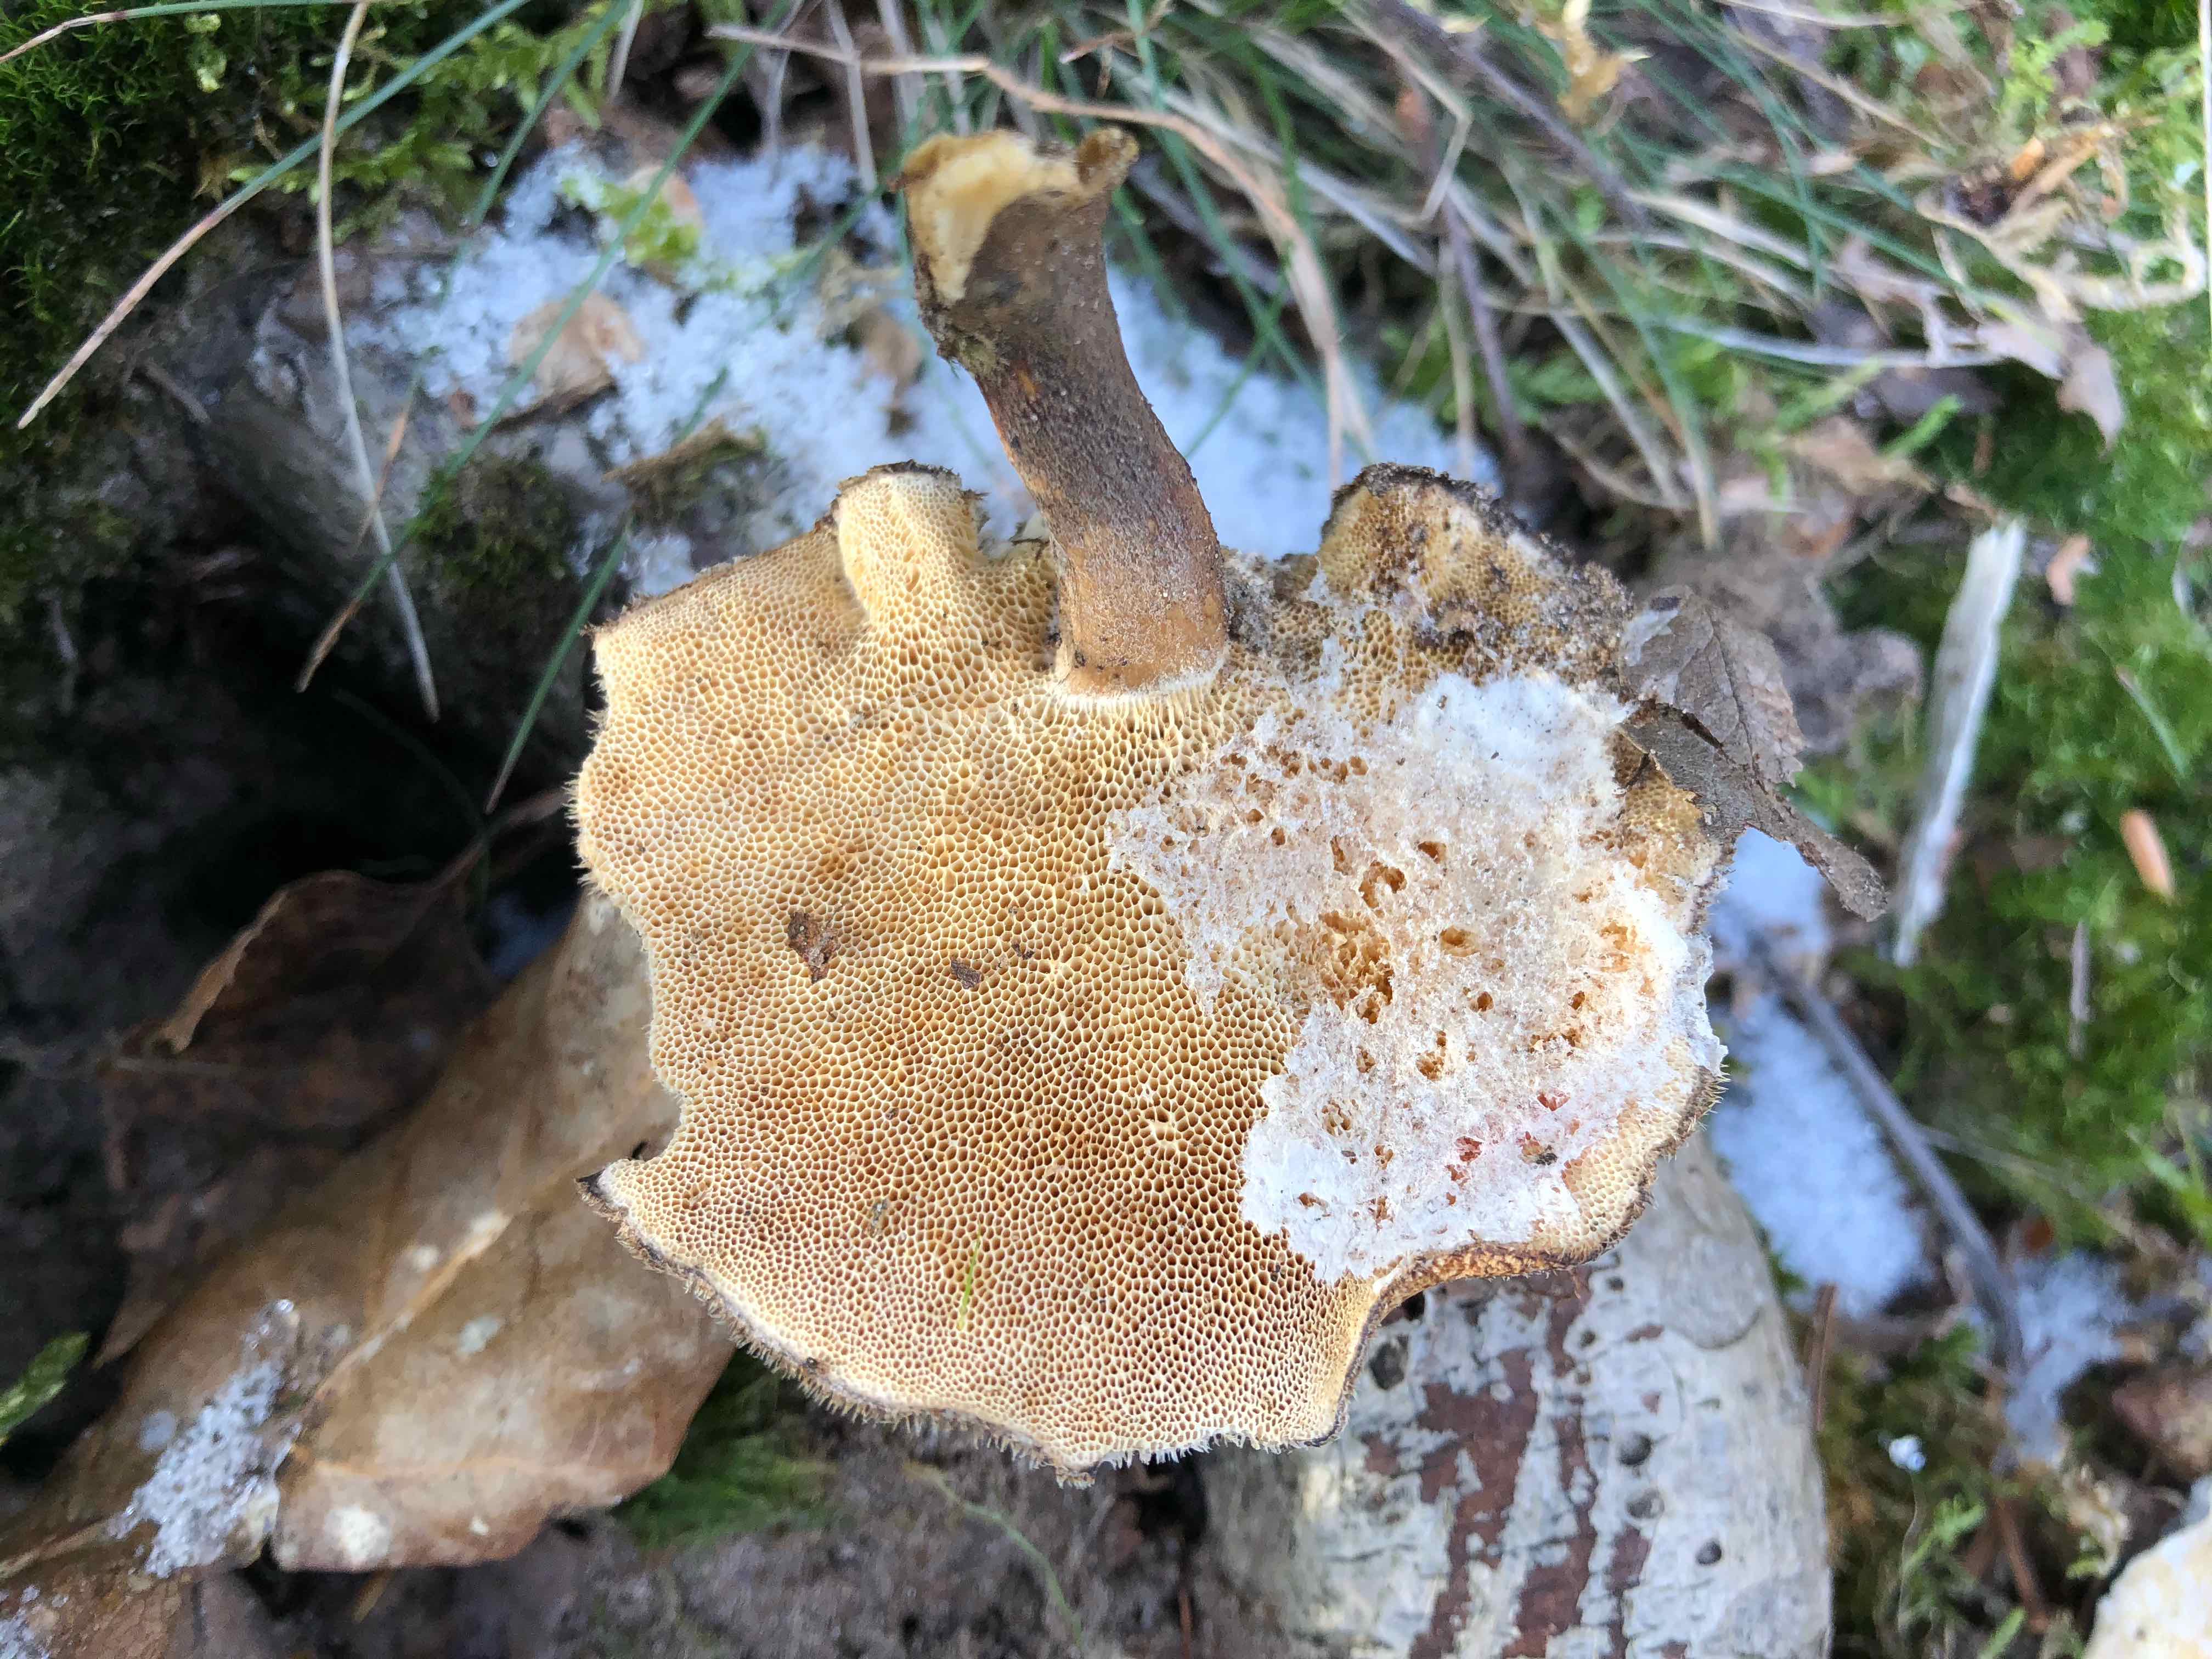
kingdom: Fungi
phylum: Basidiomycota
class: Agaricomycetes
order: Polyporales
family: Polyporaceae
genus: Lentinus
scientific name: Lentinus brumalis
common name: vinter-stilkporesvamp
